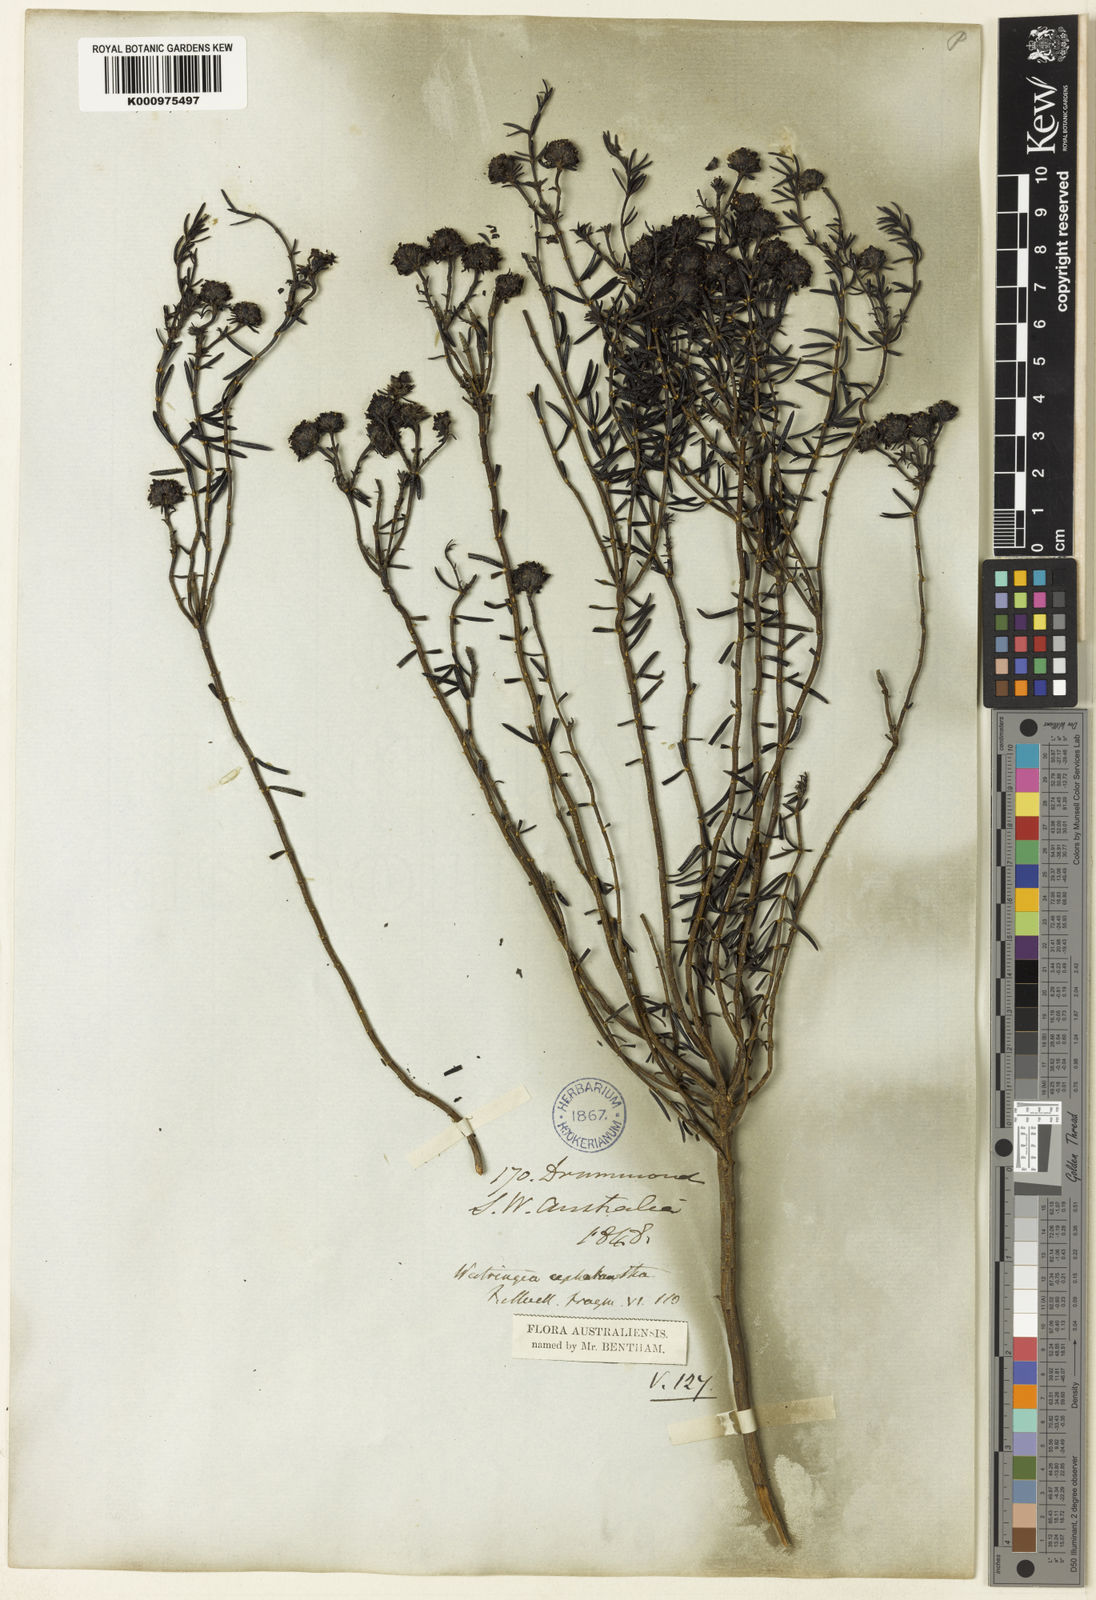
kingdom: Plantae
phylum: Tracheophyta
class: Magnoliopsida
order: Lamiales
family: Lamiaceae
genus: Westringia
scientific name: Westringia cephalantha
